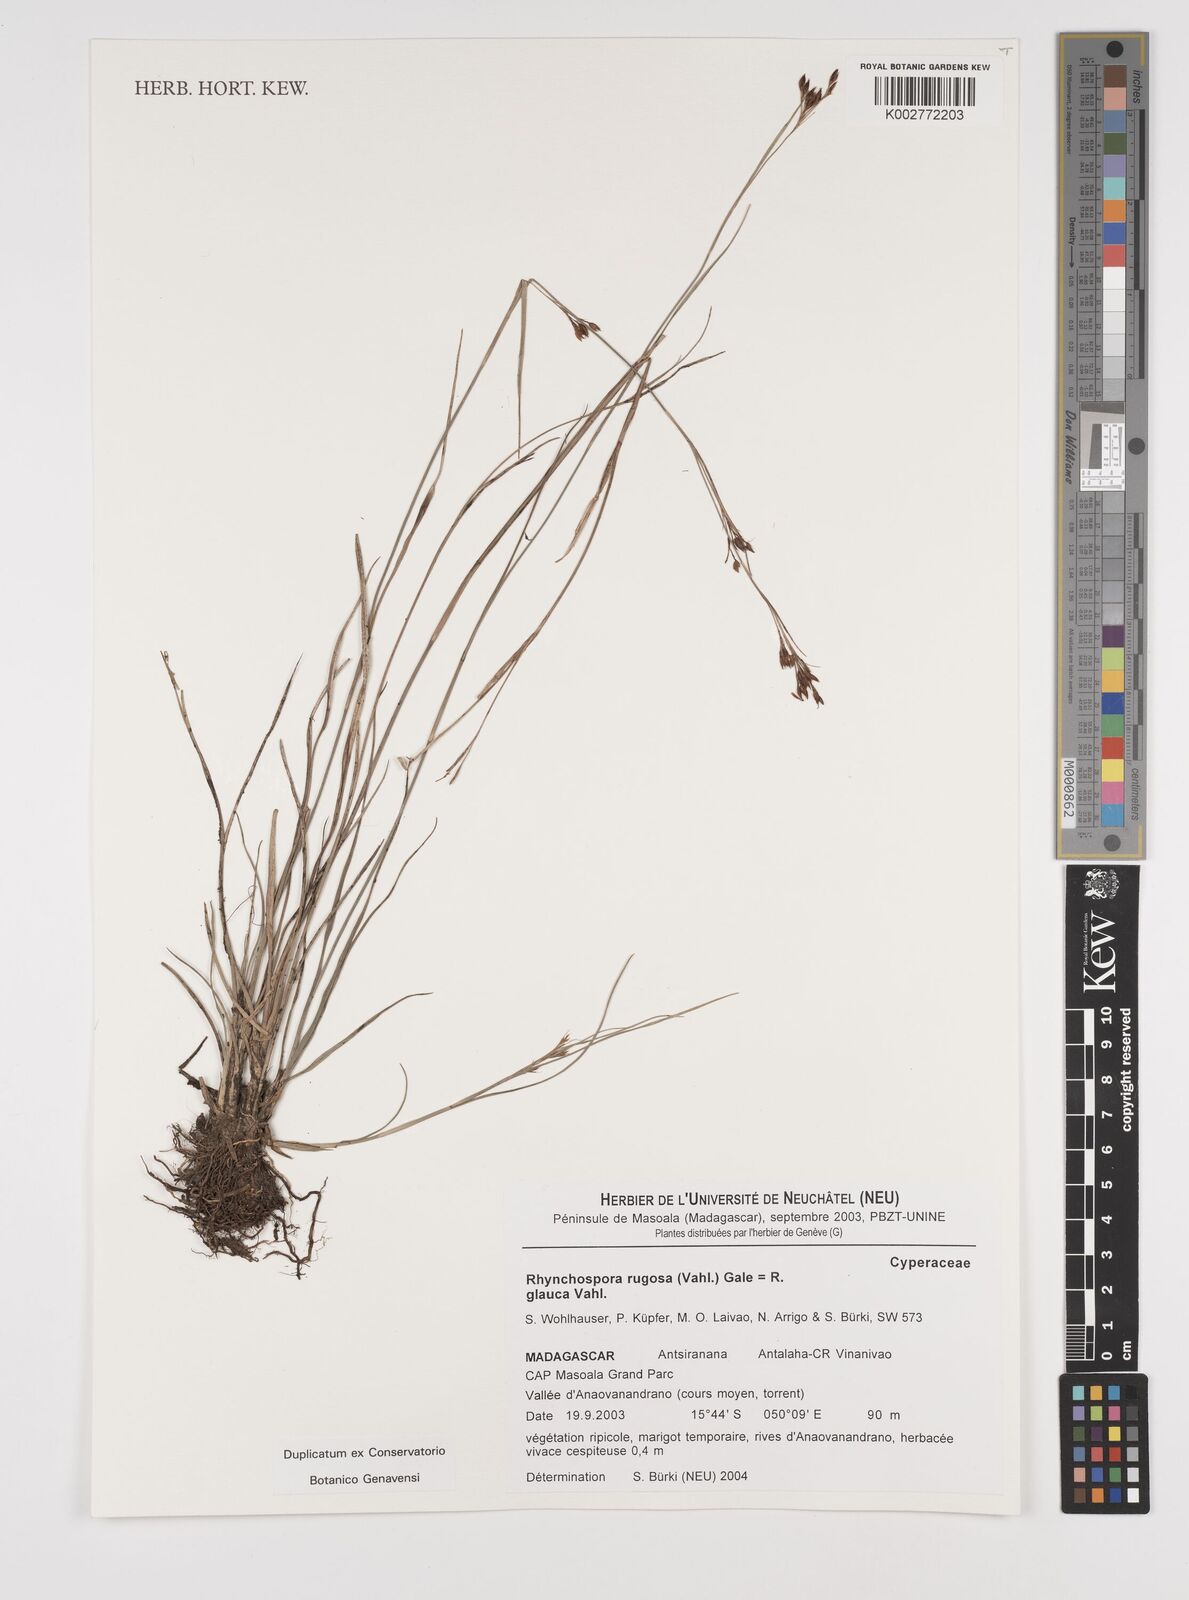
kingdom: Plantae
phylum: Tracheophyta
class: Liliopsida
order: Poales
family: Cyperaceae
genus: Rhynchospora
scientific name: Rhynchospora rugosa
